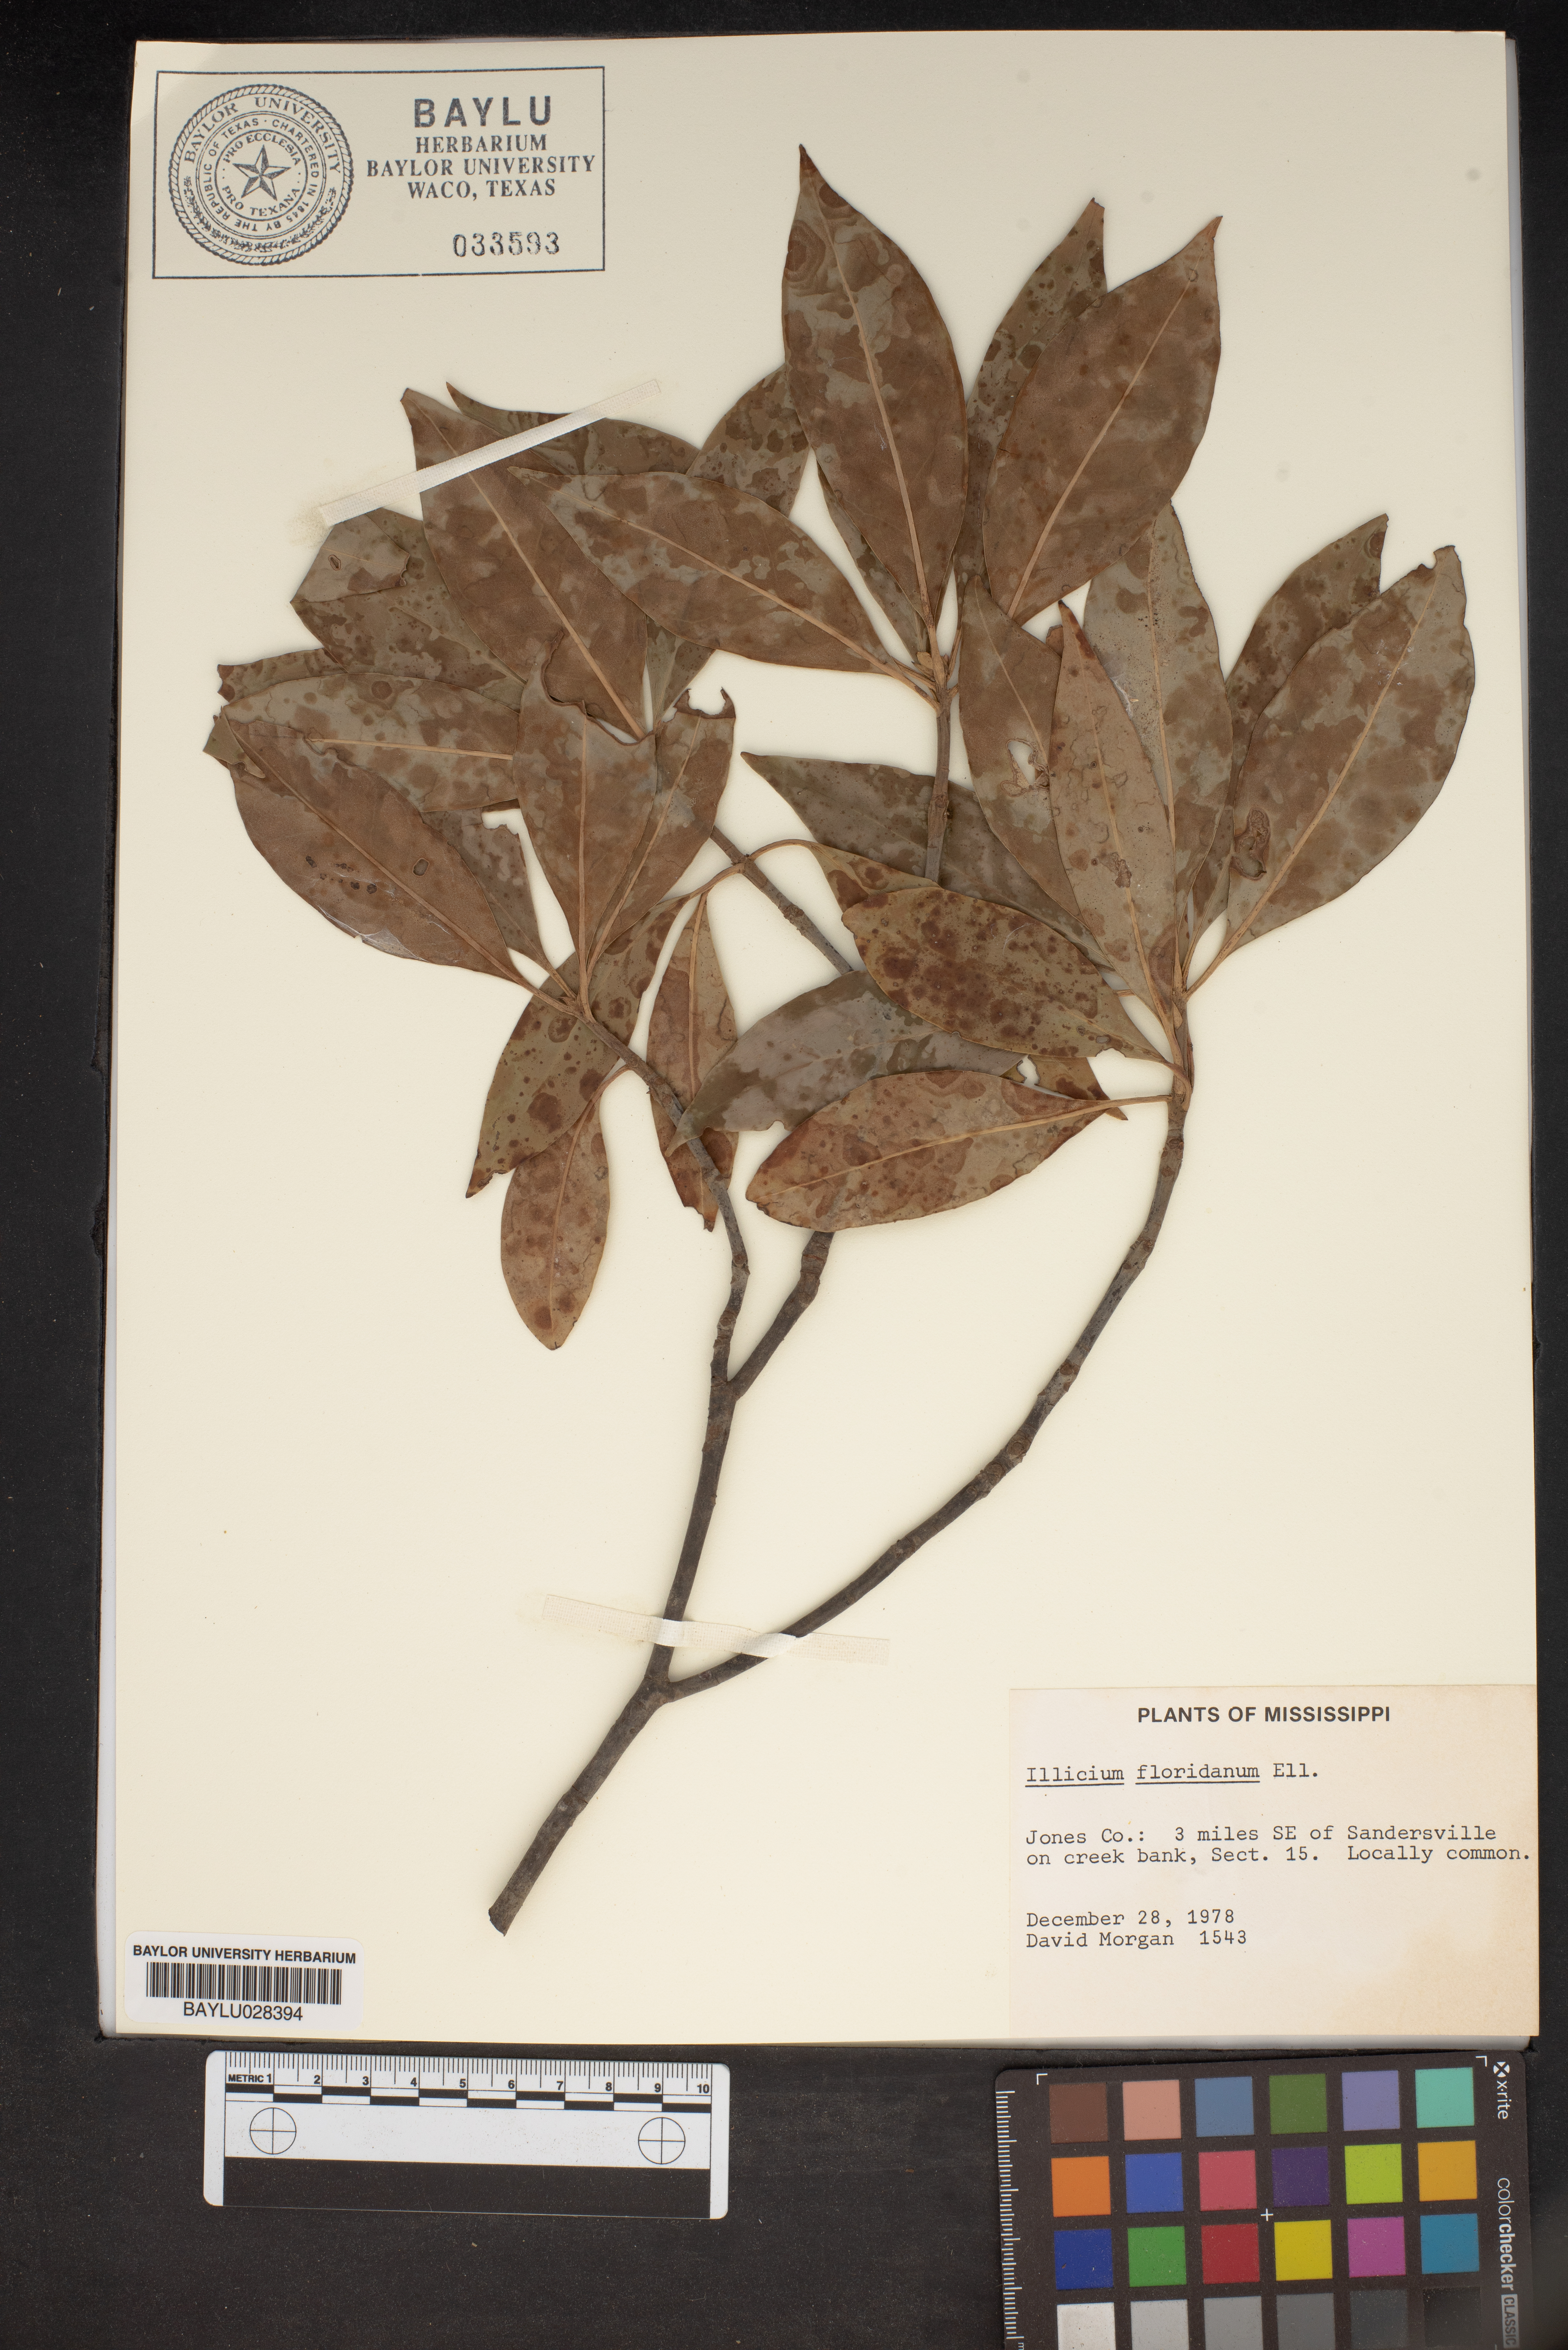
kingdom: Plantae
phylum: Tracheophyta
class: Magnoliopsida
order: Austrobaileyales
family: Schisandraceae
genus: Illicium
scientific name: Illicium floridanum
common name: Florida anisetree
